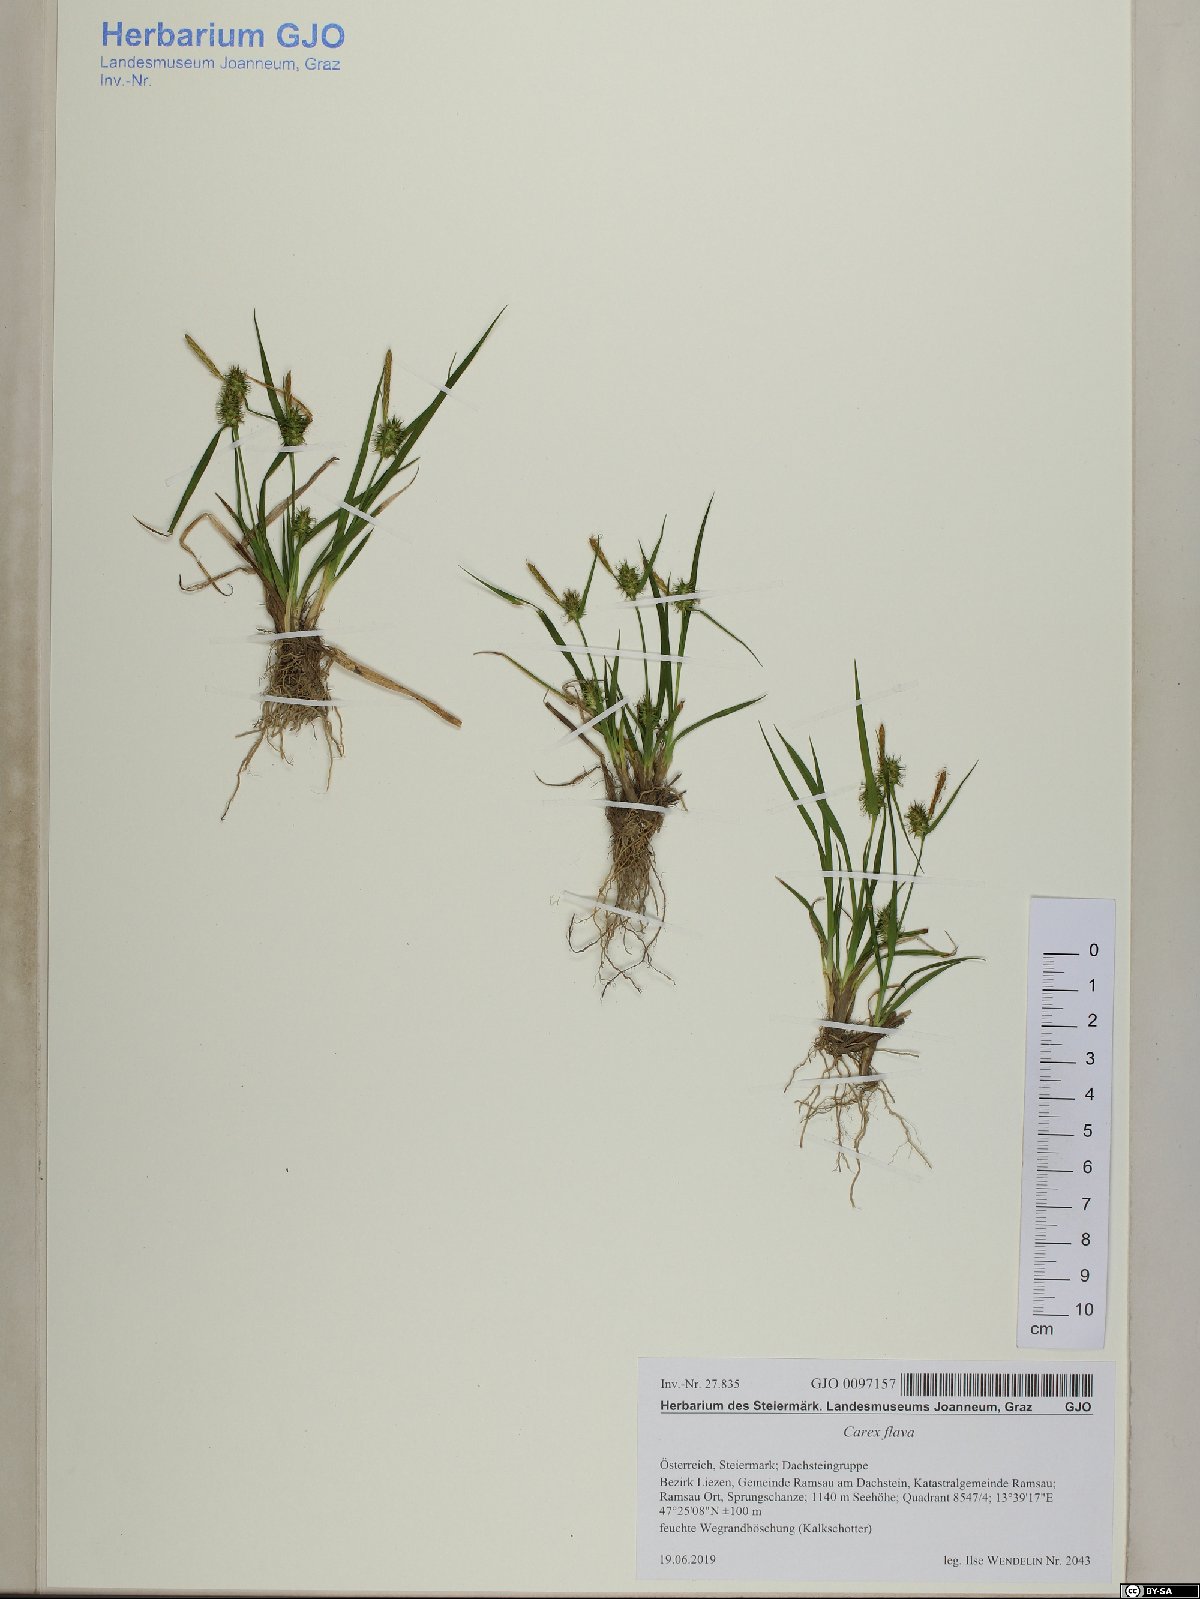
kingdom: Plantae
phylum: Tracheophyta
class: Liliopsida
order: Poales
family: Cyperaceae
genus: Carex
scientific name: Carex flava
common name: Large yellow-sedge
